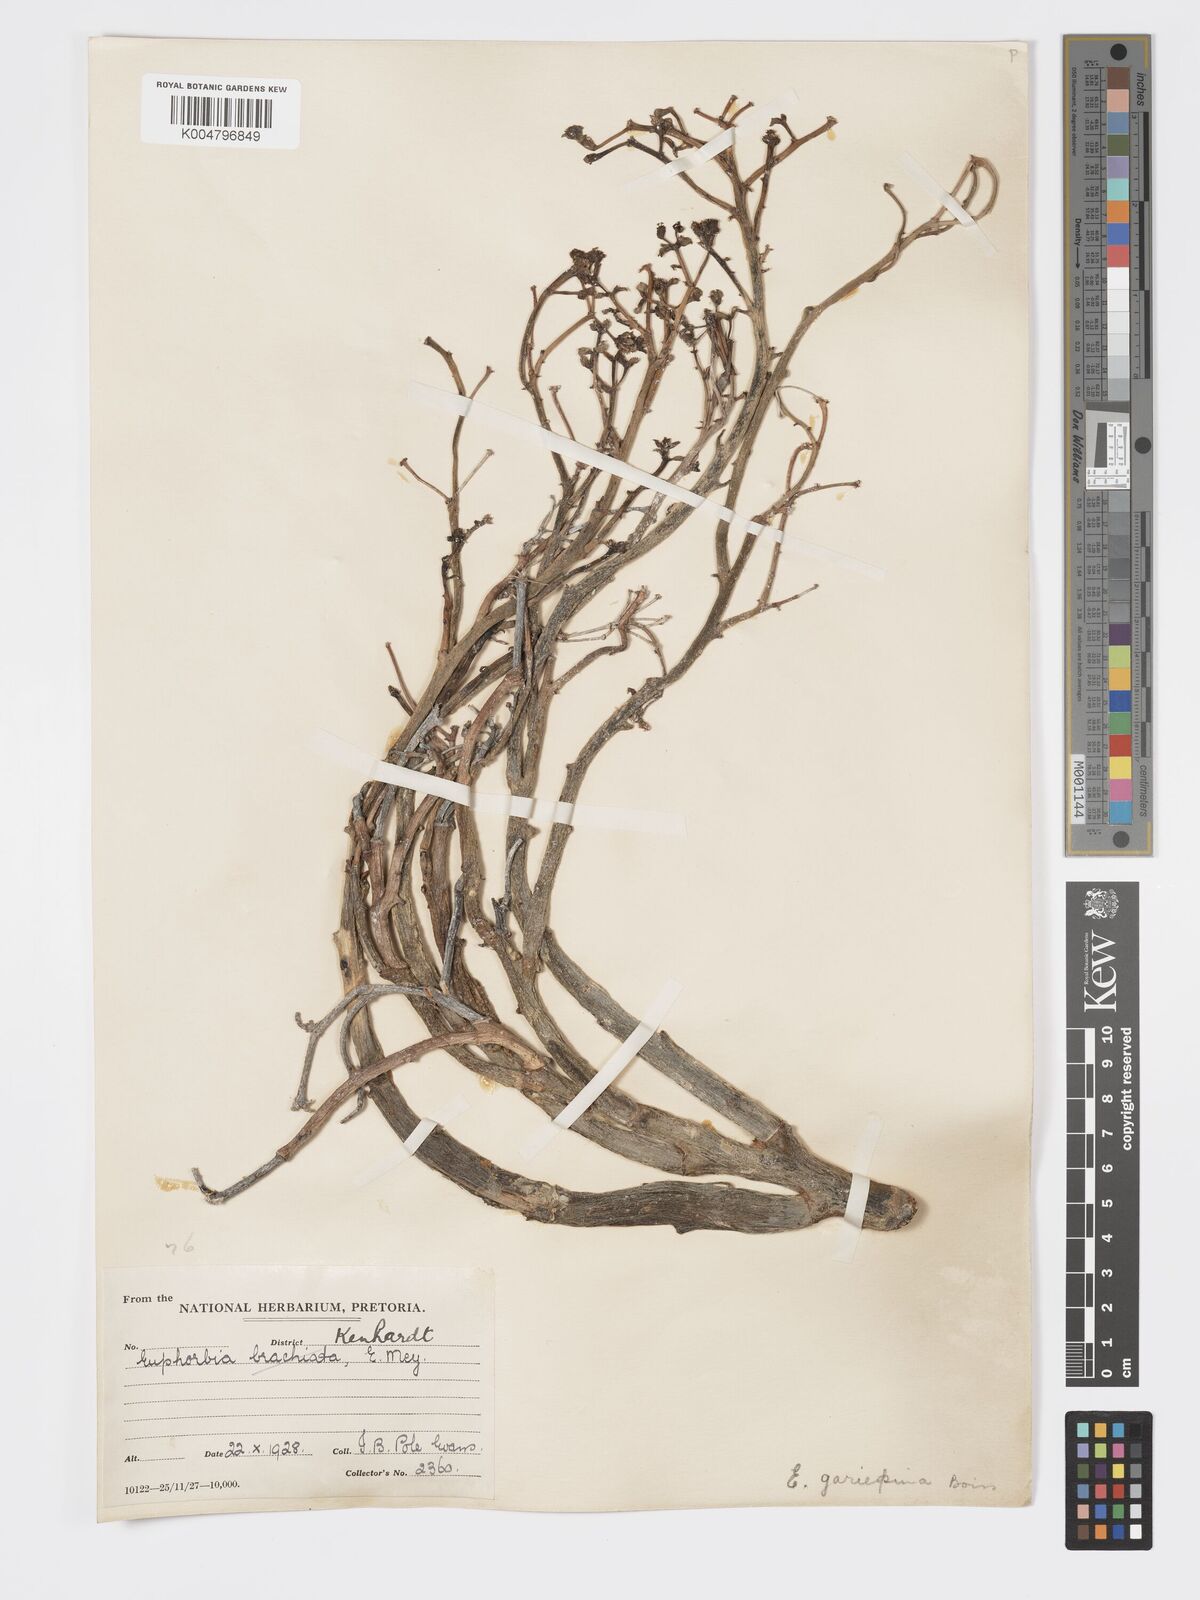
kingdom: Plantae
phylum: Tracheophyta
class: Magnoliopsida
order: Malpighiales
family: Euphorbiaceae
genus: Euphorbia
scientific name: Euphorbia gariepina
